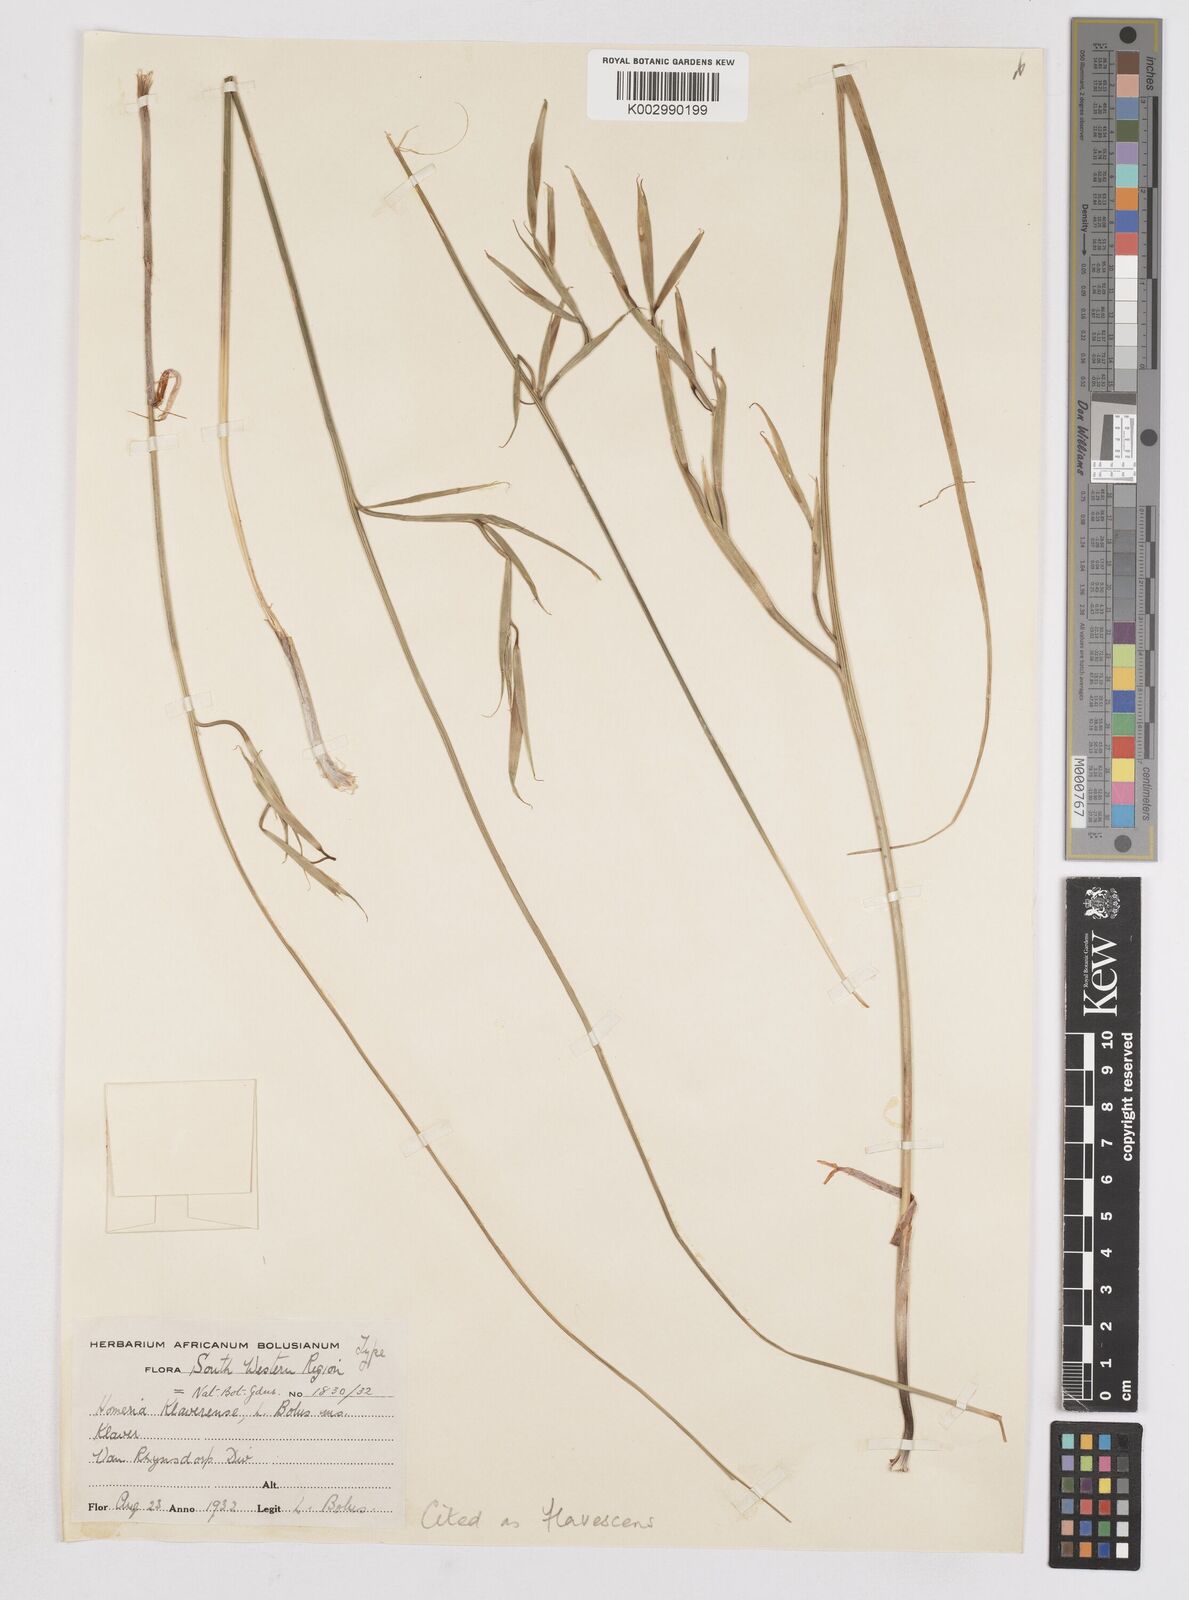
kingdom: Plantae
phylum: Tracheophyta
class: Liliopsida
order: Asparagales
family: Iridaceae
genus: Moraea
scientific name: Moraea flavescens
